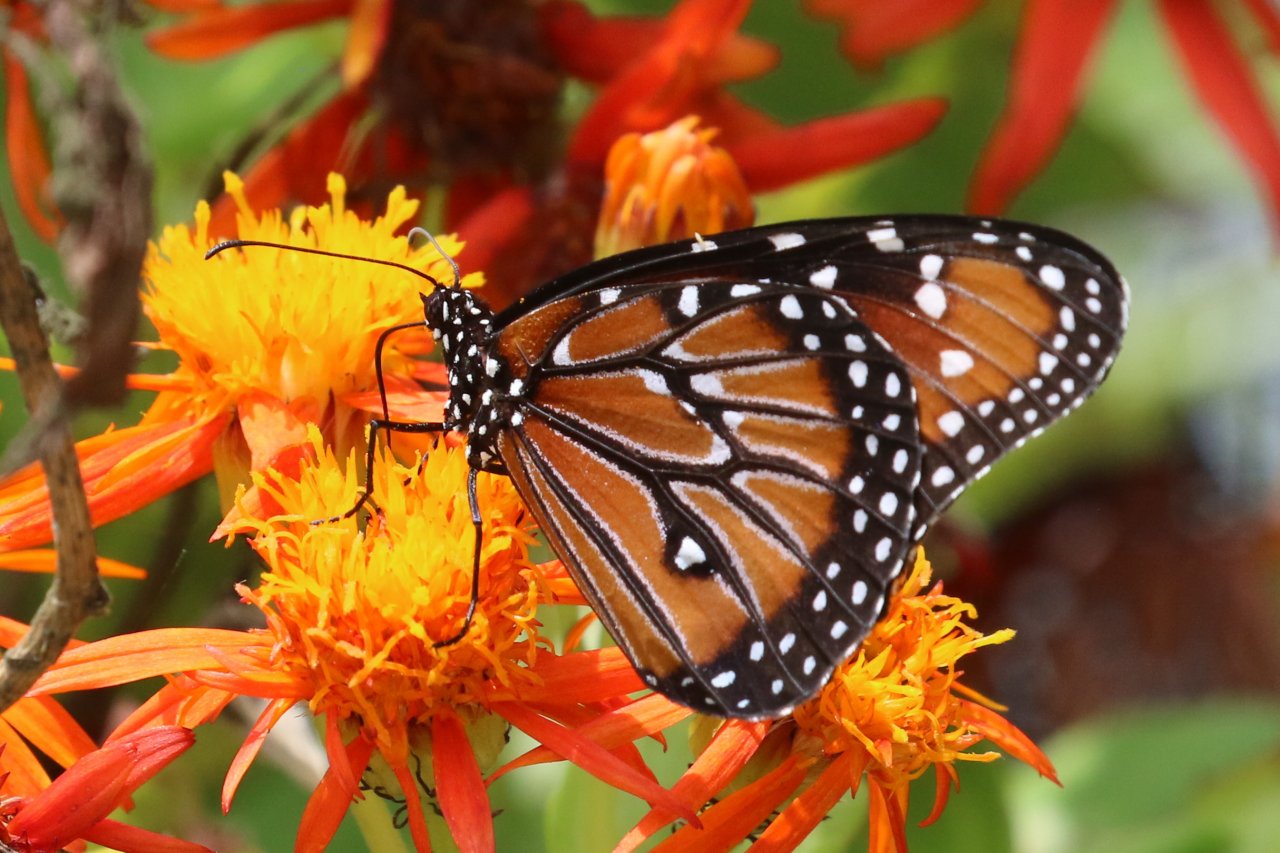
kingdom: Animalia
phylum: Arthropoda
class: Insecta
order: Lepidoptera
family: Nymphalidae
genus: Danaus
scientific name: Danaus gilippus
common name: Queen
